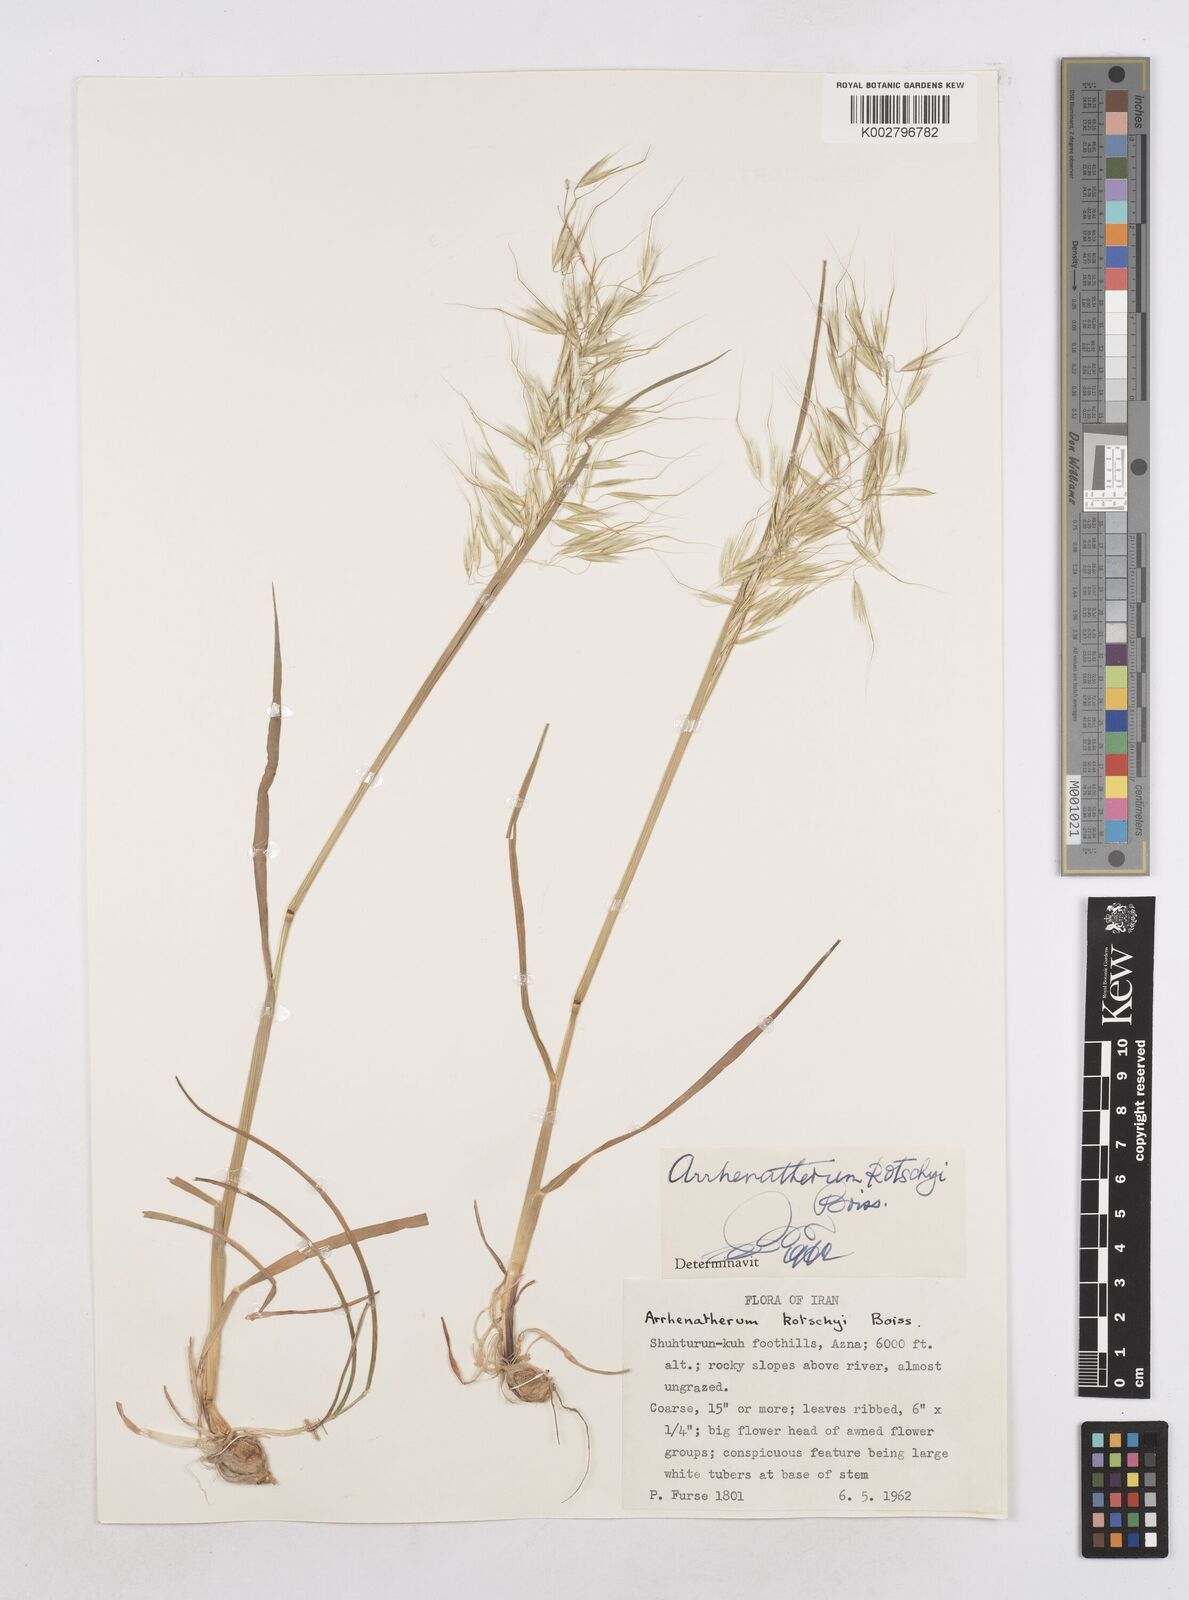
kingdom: Plantae
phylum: Tracheophyta
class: Liliopsida
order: Poales
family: Poaceae
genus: Arrhenatherum
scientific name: Arrhenatherum kotschyi
